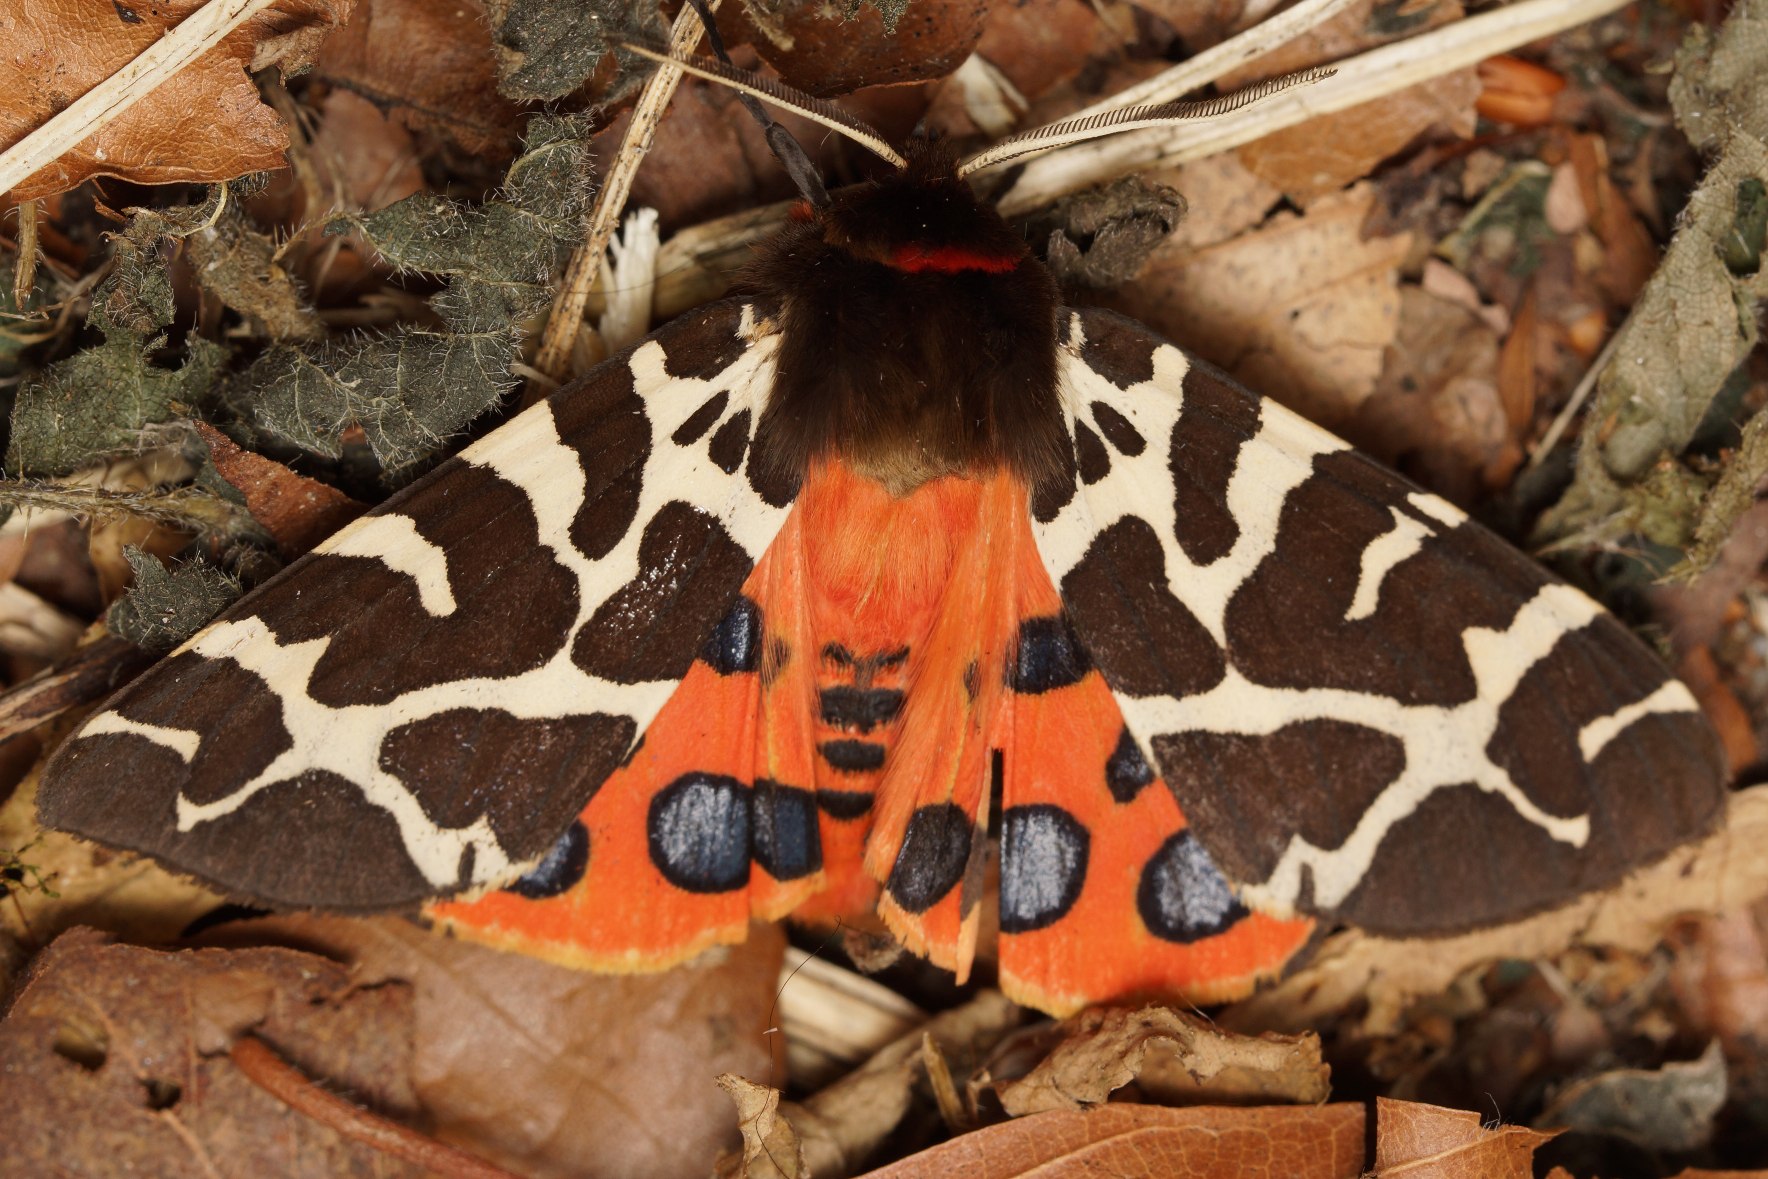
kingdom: Animalia
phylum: Arthropoda
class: Insecta
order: Lepidoptera
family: Erebidae
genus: Arctia
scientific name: Arctia caja
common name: Brun bjørn
